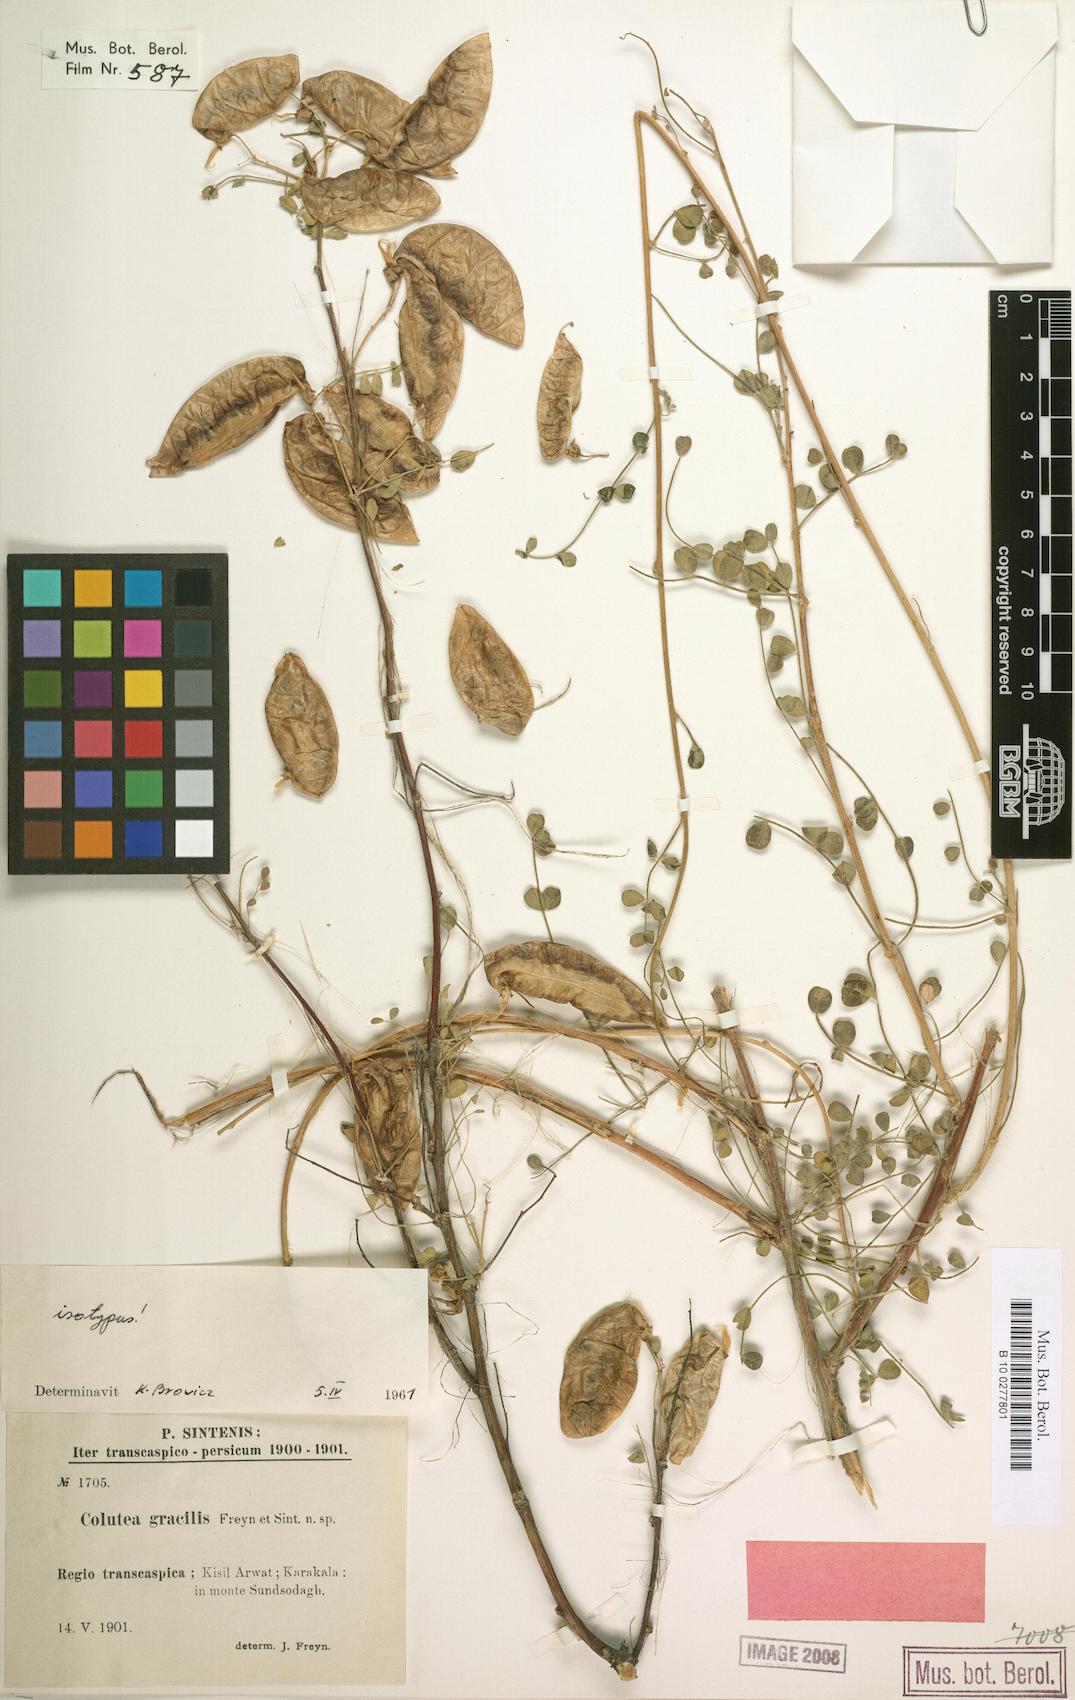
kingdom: Plantae
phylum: Tracheophyta
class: Magnoliopsida
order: Fabales
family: Fabaceae
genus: Colutea
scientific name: Colutea gracilis
